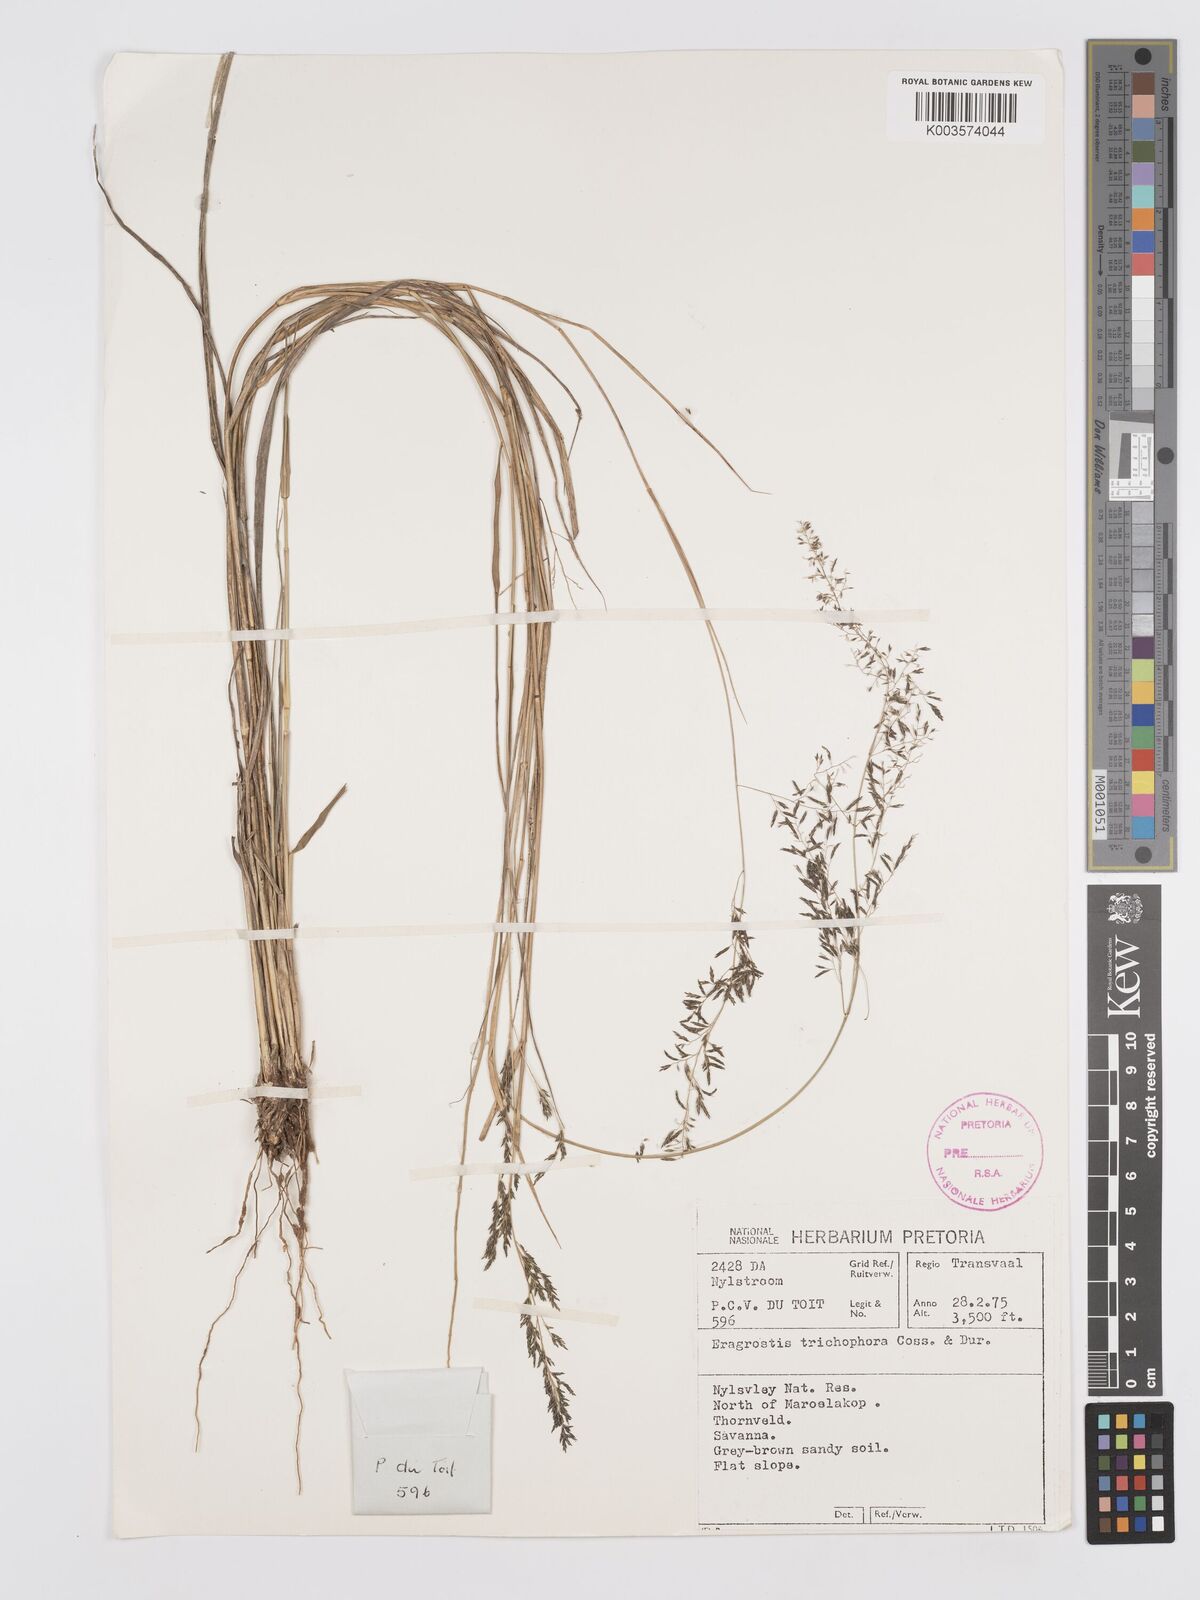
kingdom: Plantae
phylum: Tracheophyta
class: Liliopsida
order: Poales
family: Poaceae
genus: Eragrostis
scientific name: Eragrostis cylindriflora
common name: Cylinderflower lovegrass
